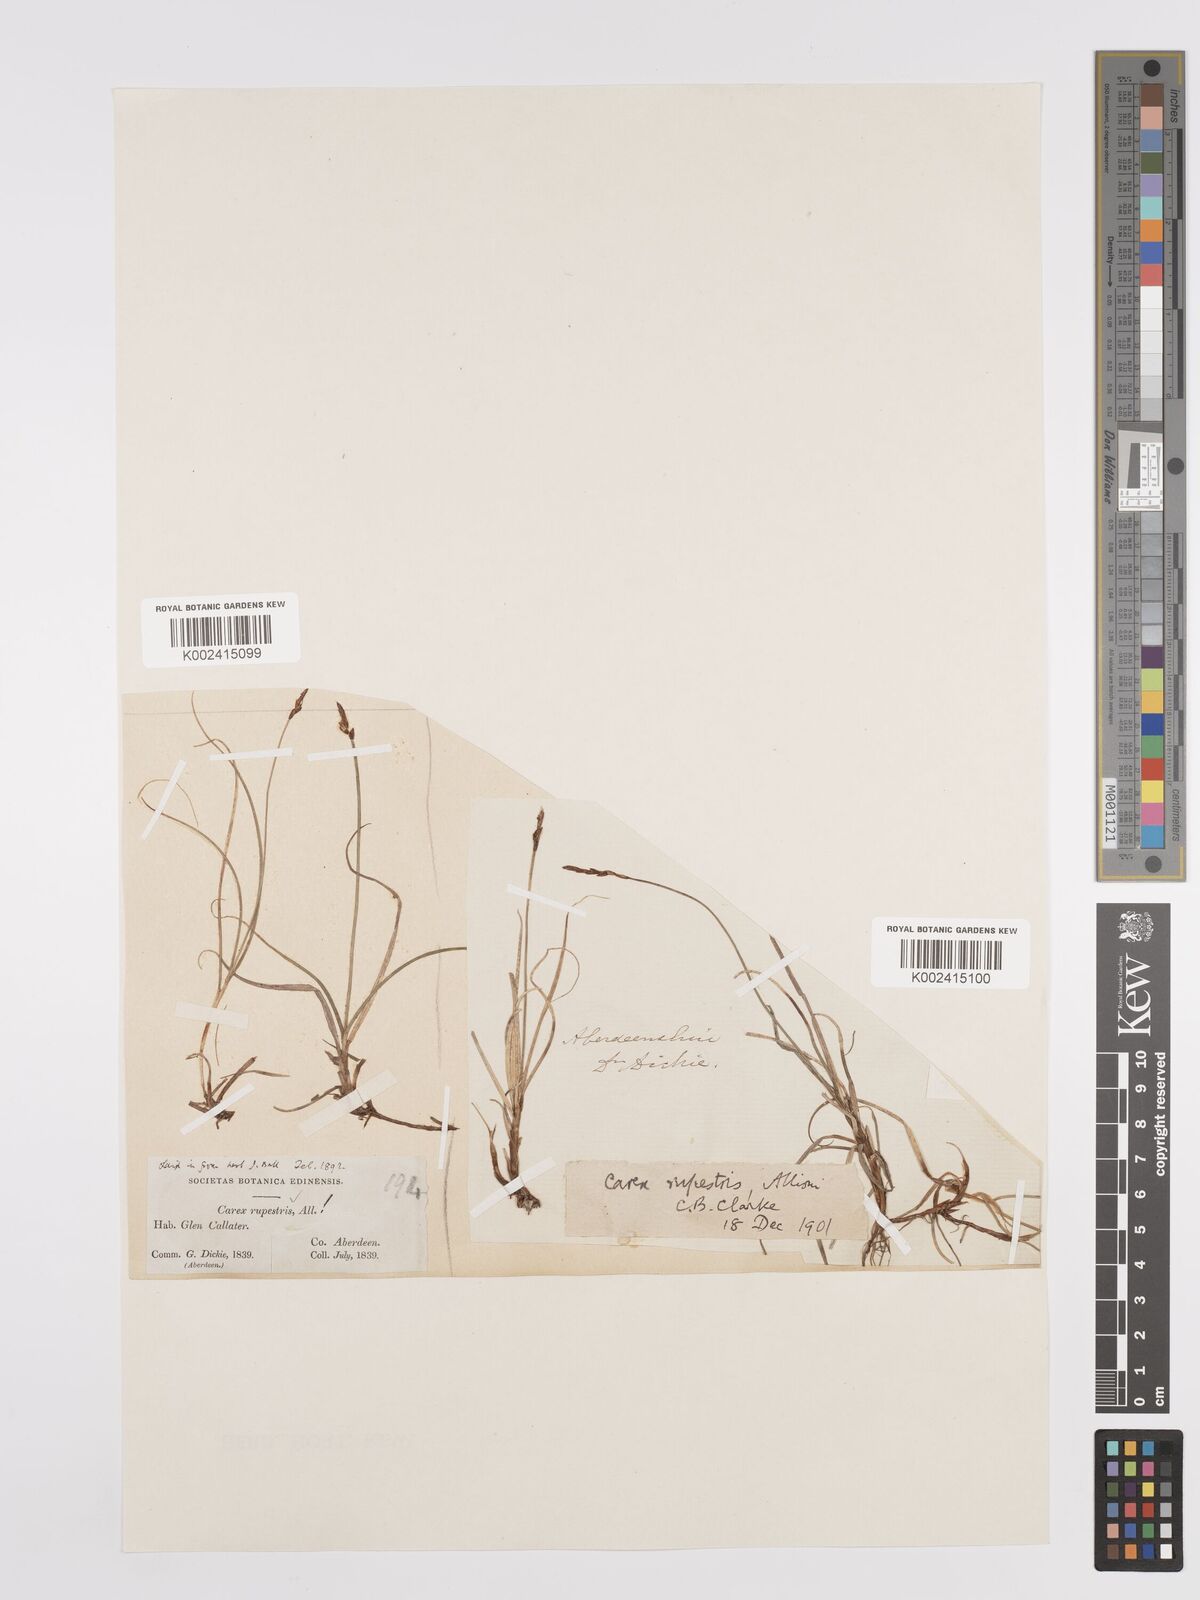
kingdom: Plantae
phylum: Tracheophyta
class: Liliopsida
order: Poales
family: Cyperaceae
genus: Carex
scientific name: Carex rupestris
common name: Rock sedge
